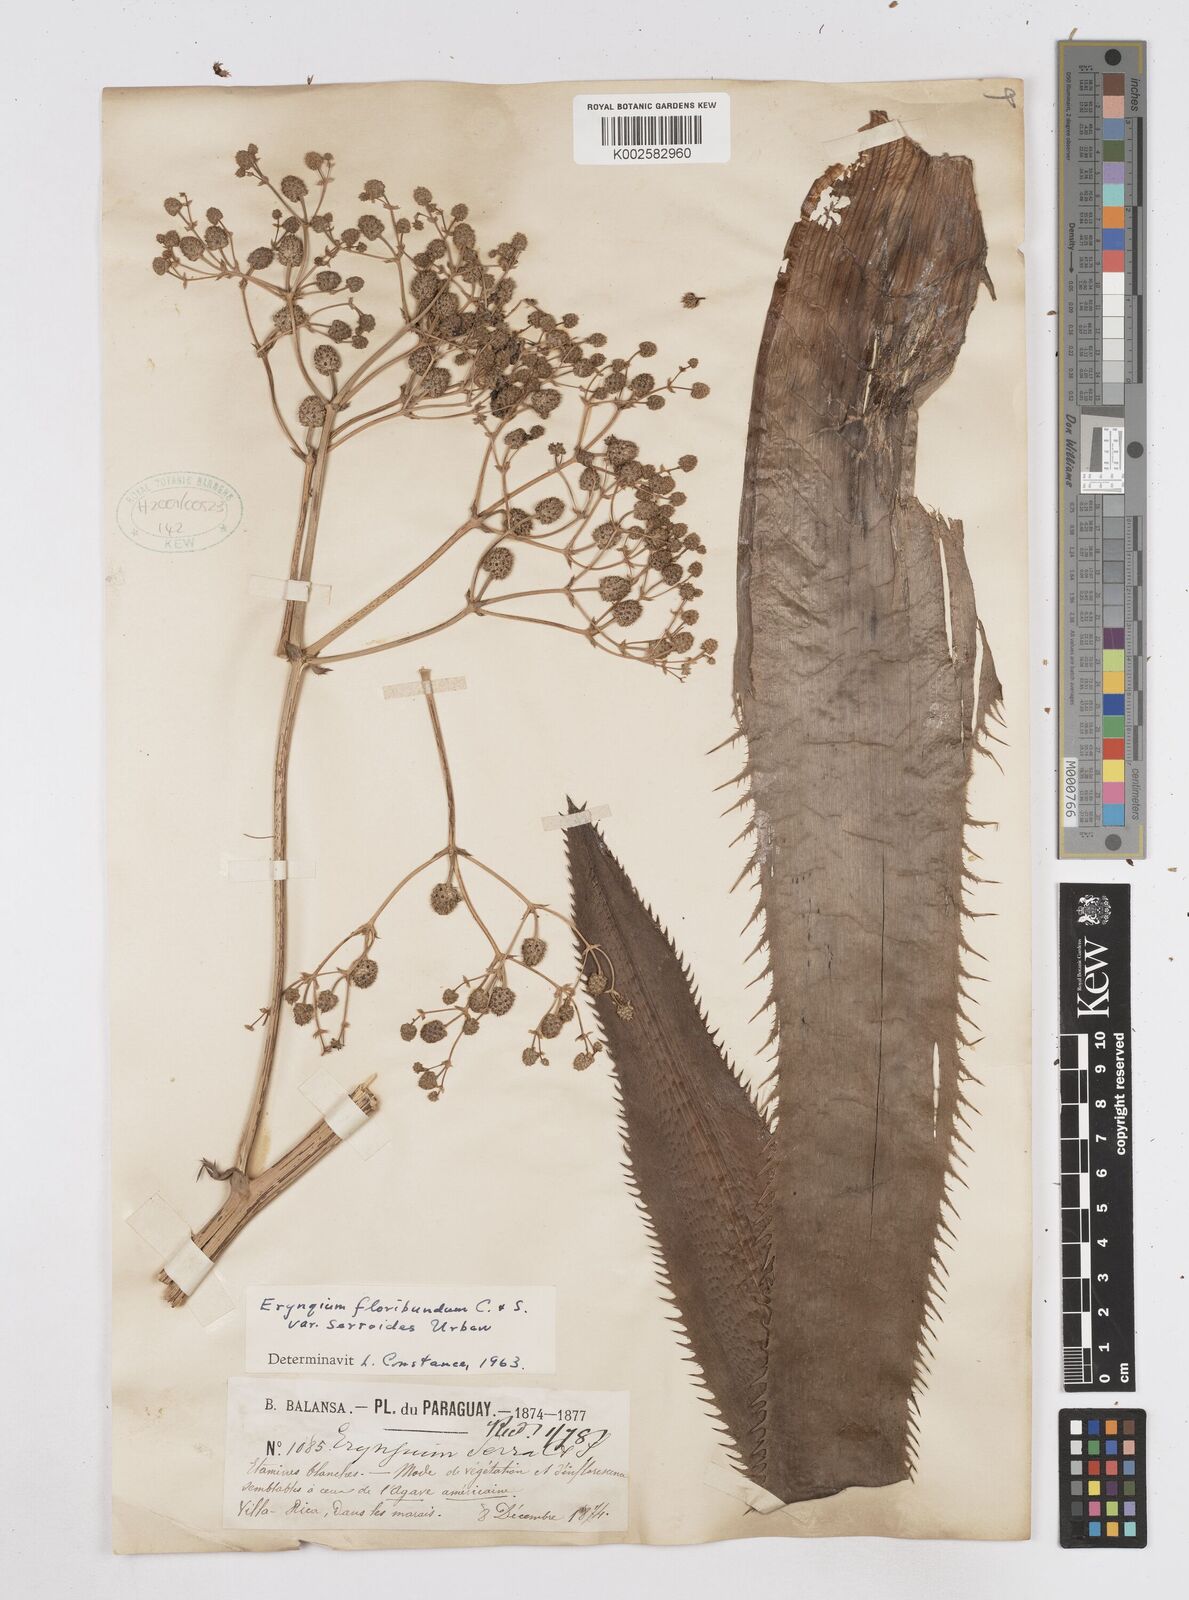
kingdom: Plantae
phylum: Tracheophyta
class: Magnoliopsida
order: Apiales
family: Apiaceae
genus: Eryngium
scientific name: Eryngium floribundum
